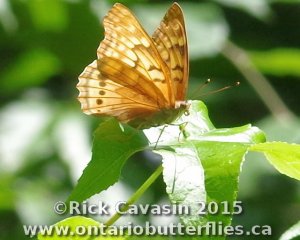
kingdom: Animalia
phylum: Arthropoda
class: Insecta
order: Lepidoptera
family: Nymphalidae
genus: Asterocampa
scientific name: Asterocampa clyton
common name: Tawny Emperor
